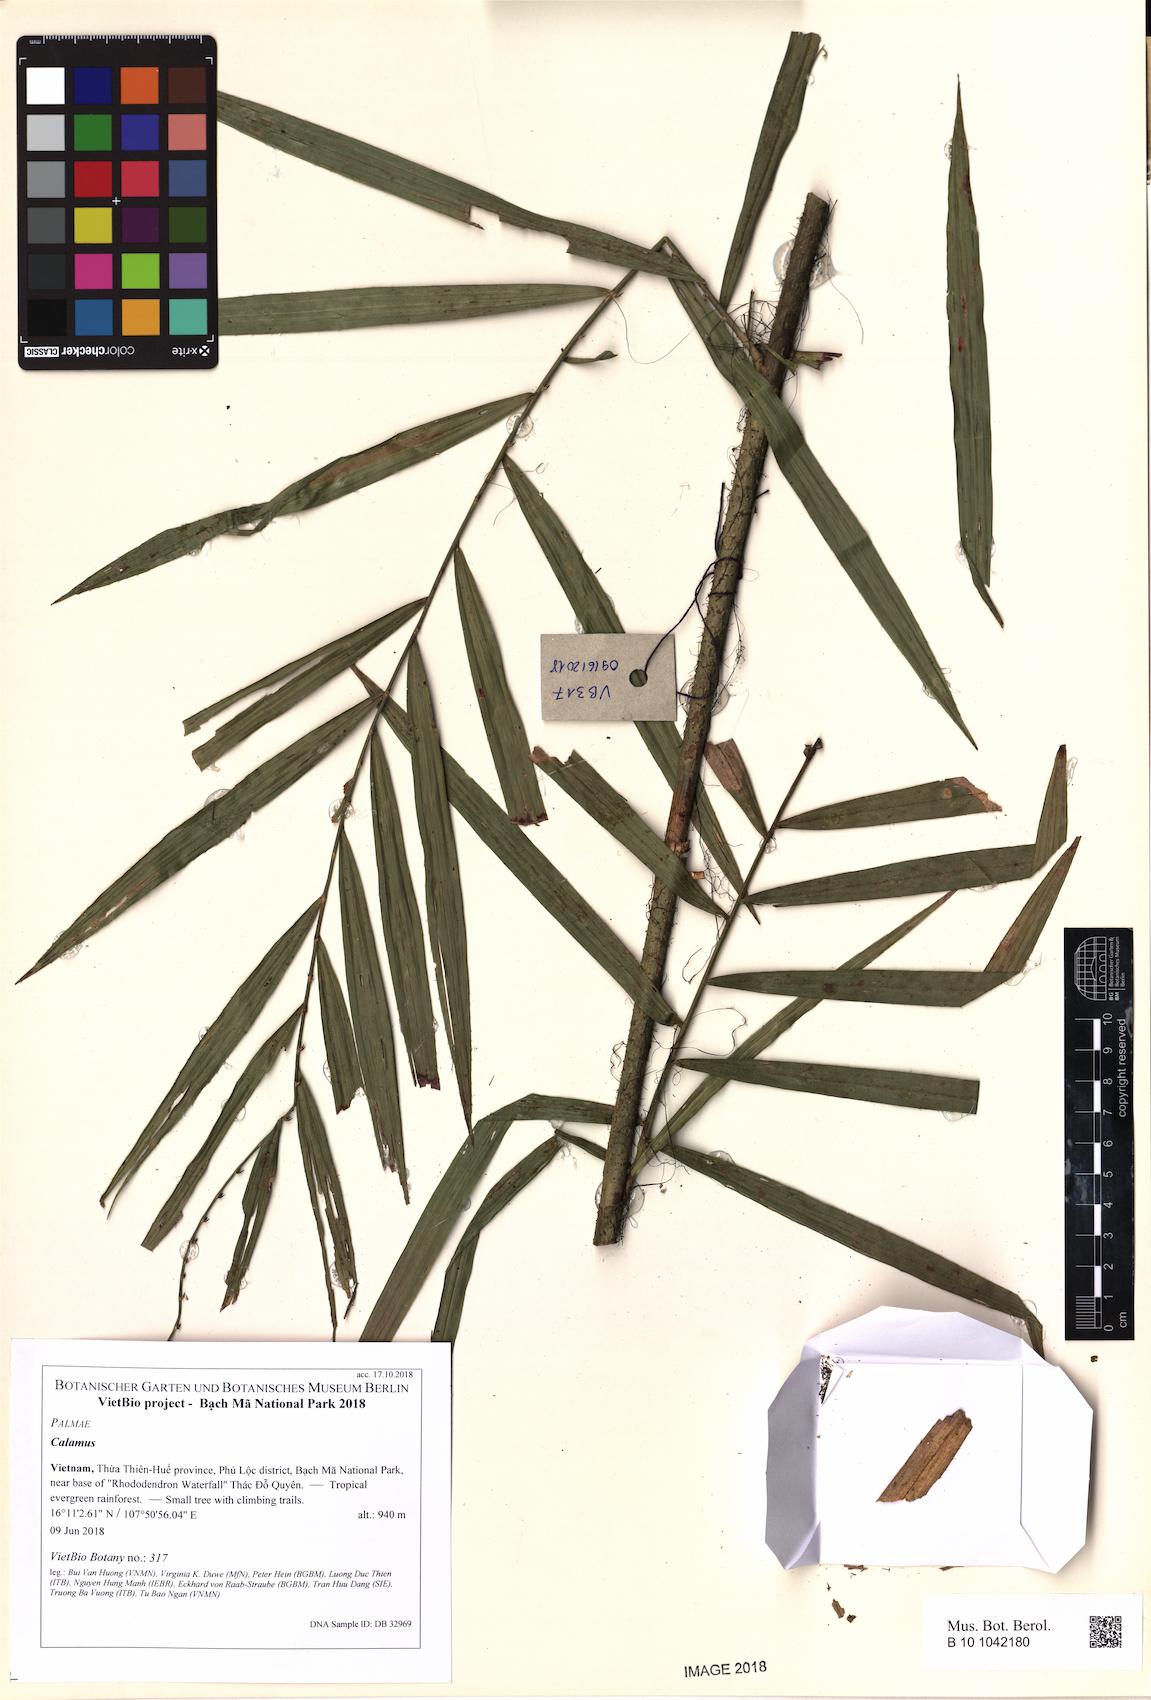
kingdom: Plantae
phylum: Tracheophyta
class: Liliopsida
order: Arecales
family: Arecaceae
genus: Calamus
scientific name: Calamus
